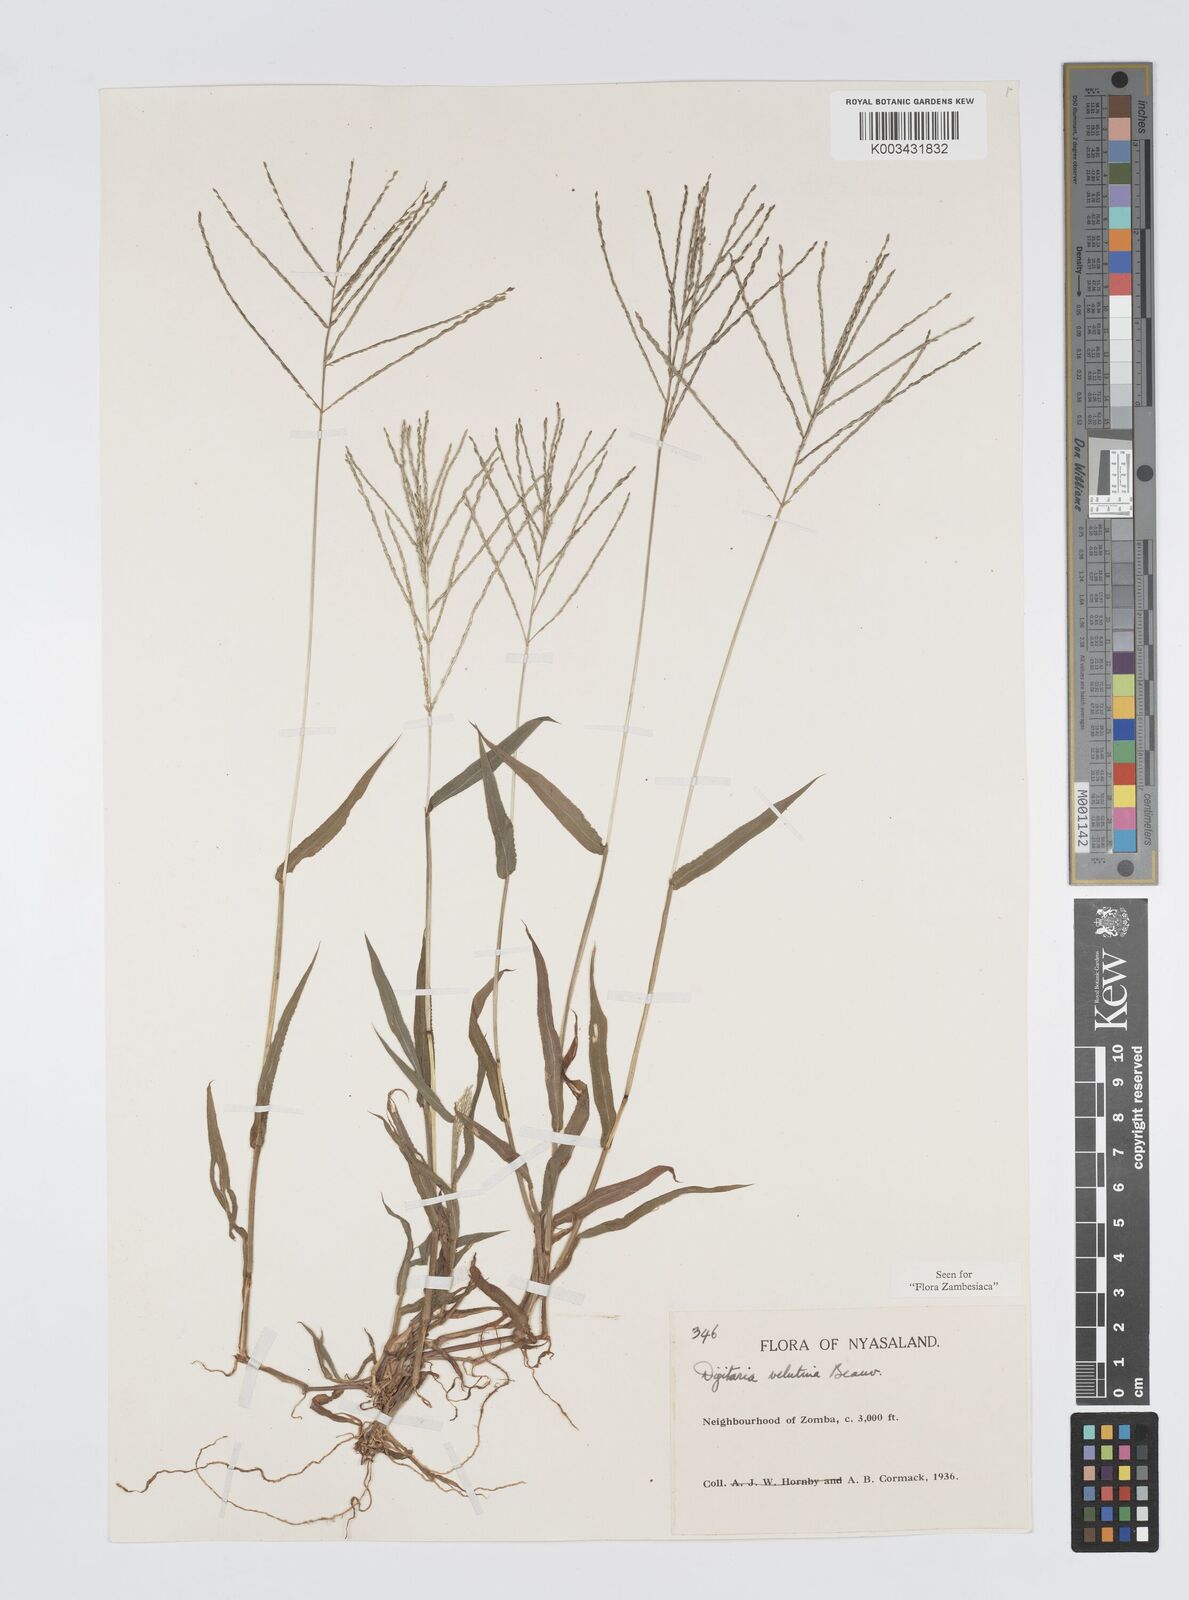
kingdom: Plantae
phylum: Tracheophyta
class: Liliopsida
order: Poales
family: Poaceae
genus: Digitaria
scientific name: Digitaria velutina
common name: Long-plume finger grass
